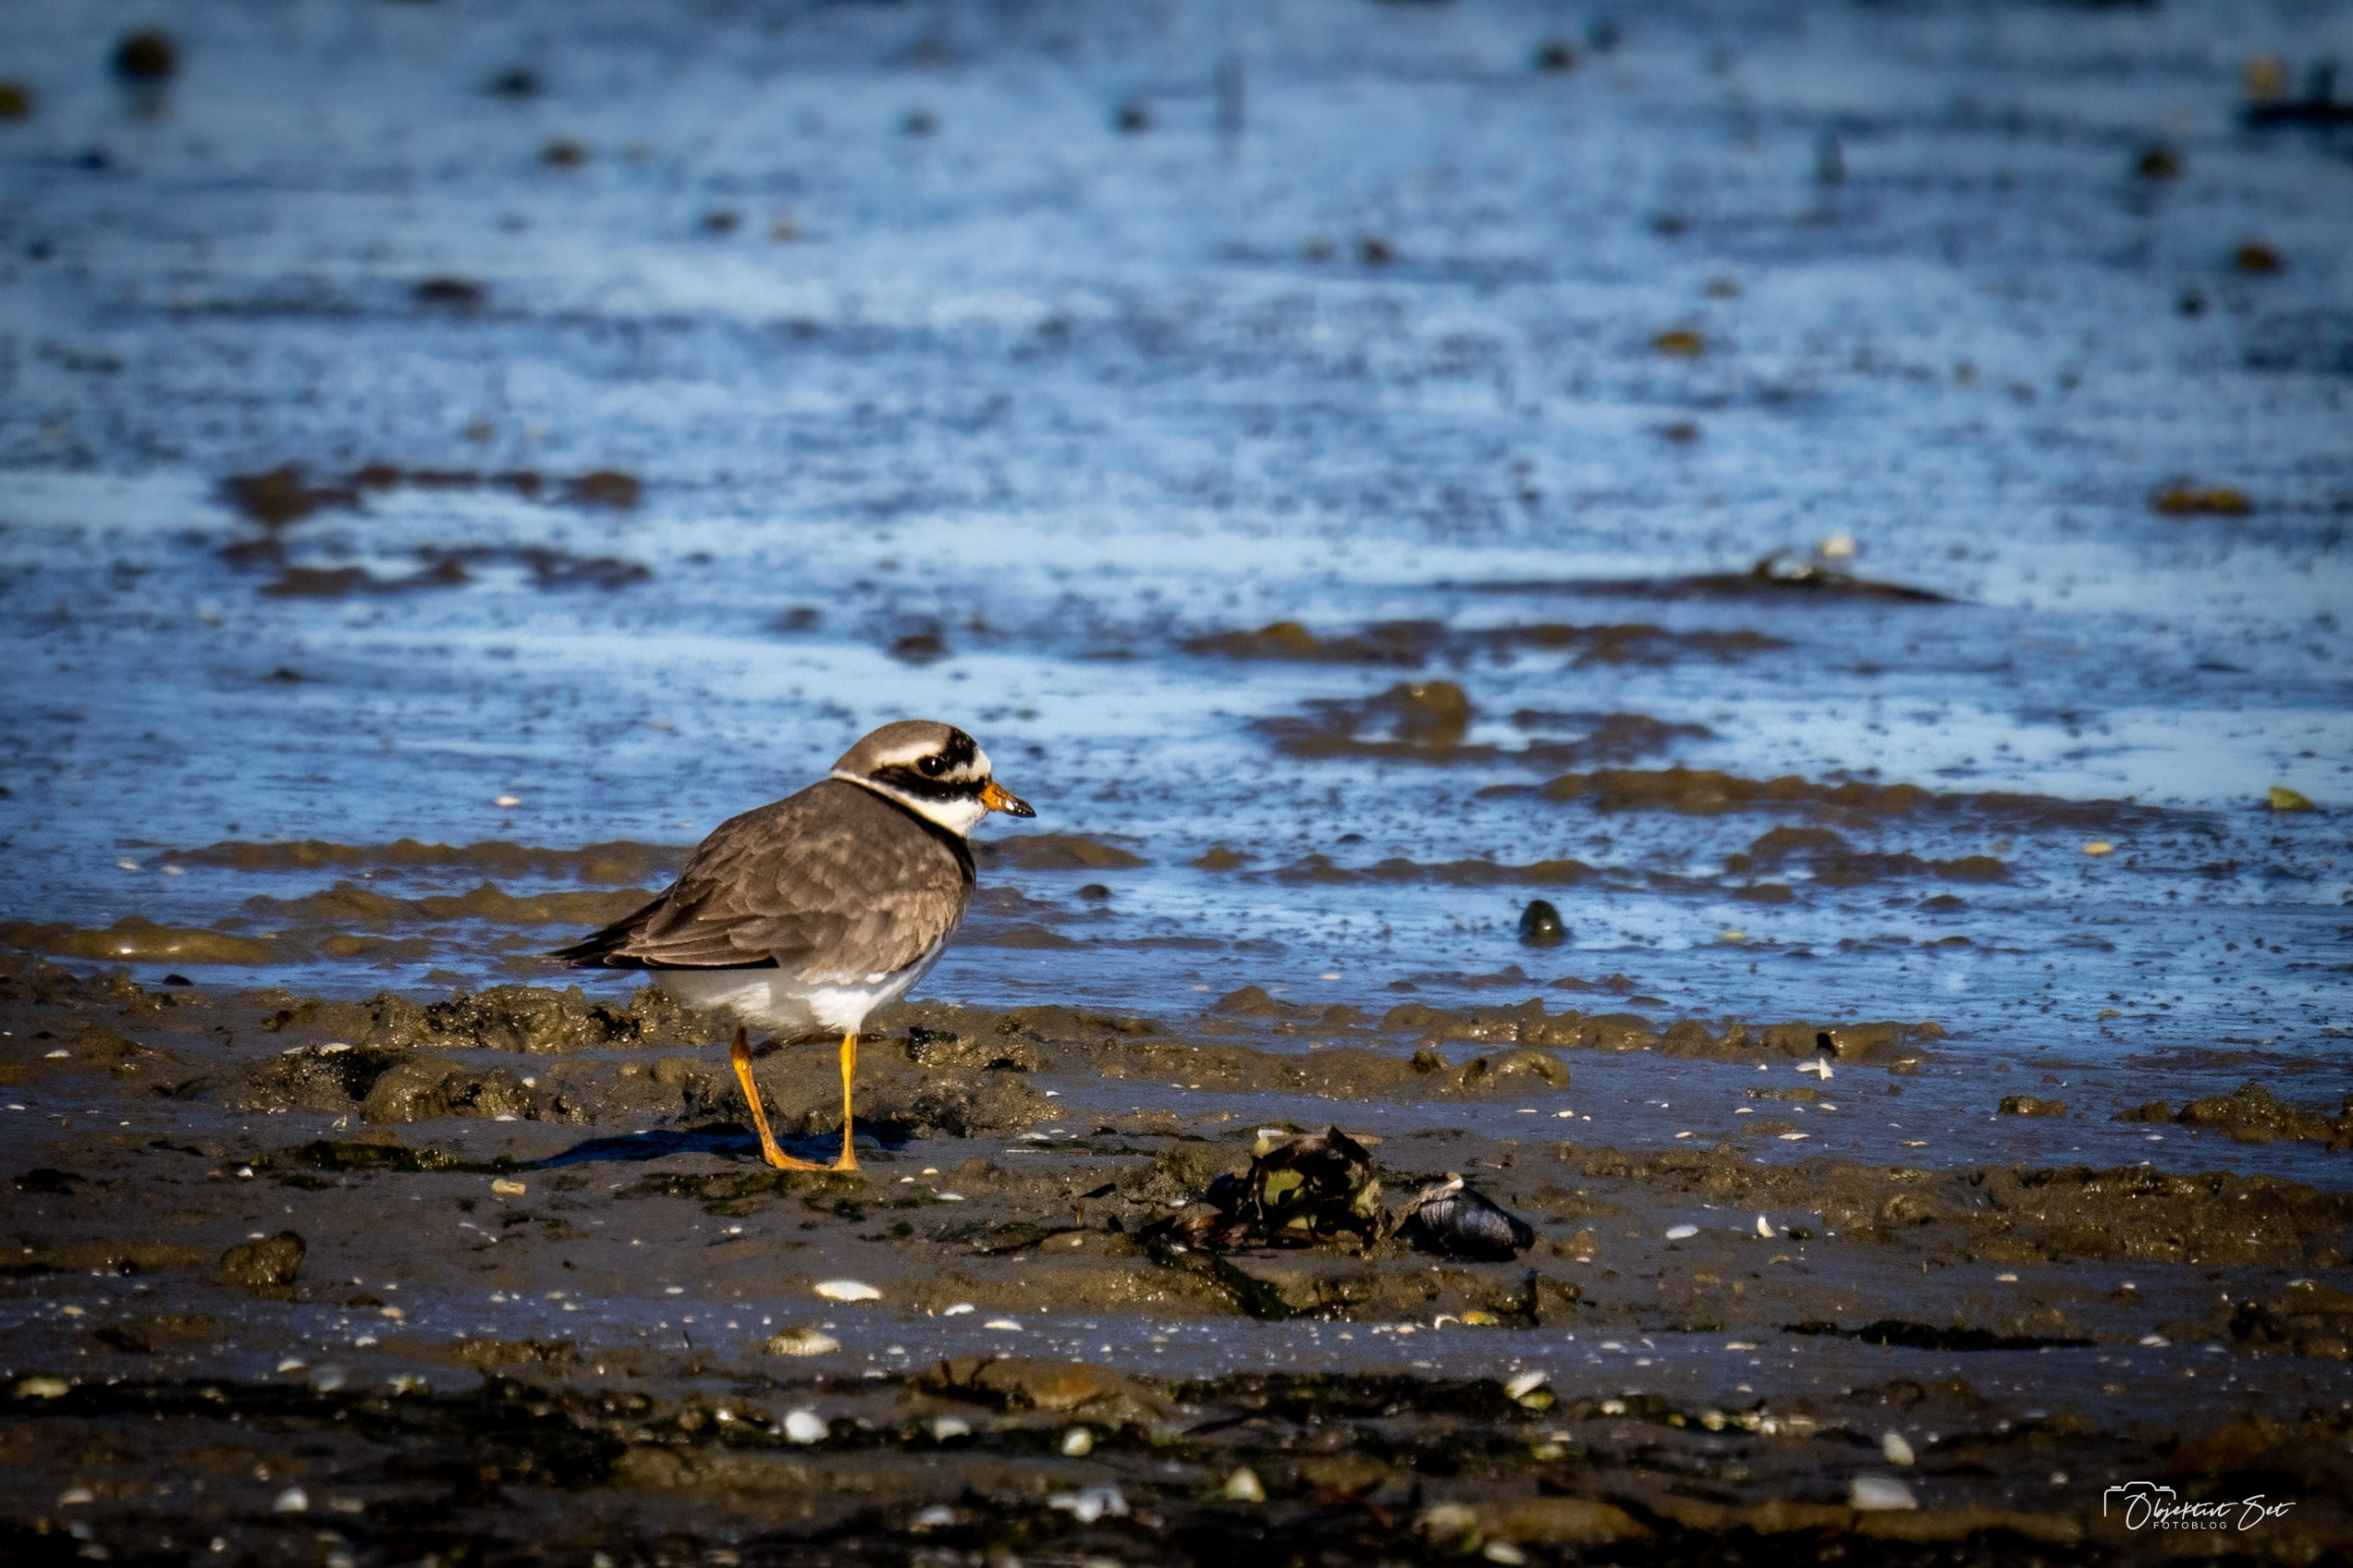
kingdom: Animalia
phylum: Chordata
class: Aves
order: Charadriiformes
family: Charadriidae
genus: Charadrius
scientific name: Charadrius hiaticula
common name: Stor præstekrave
